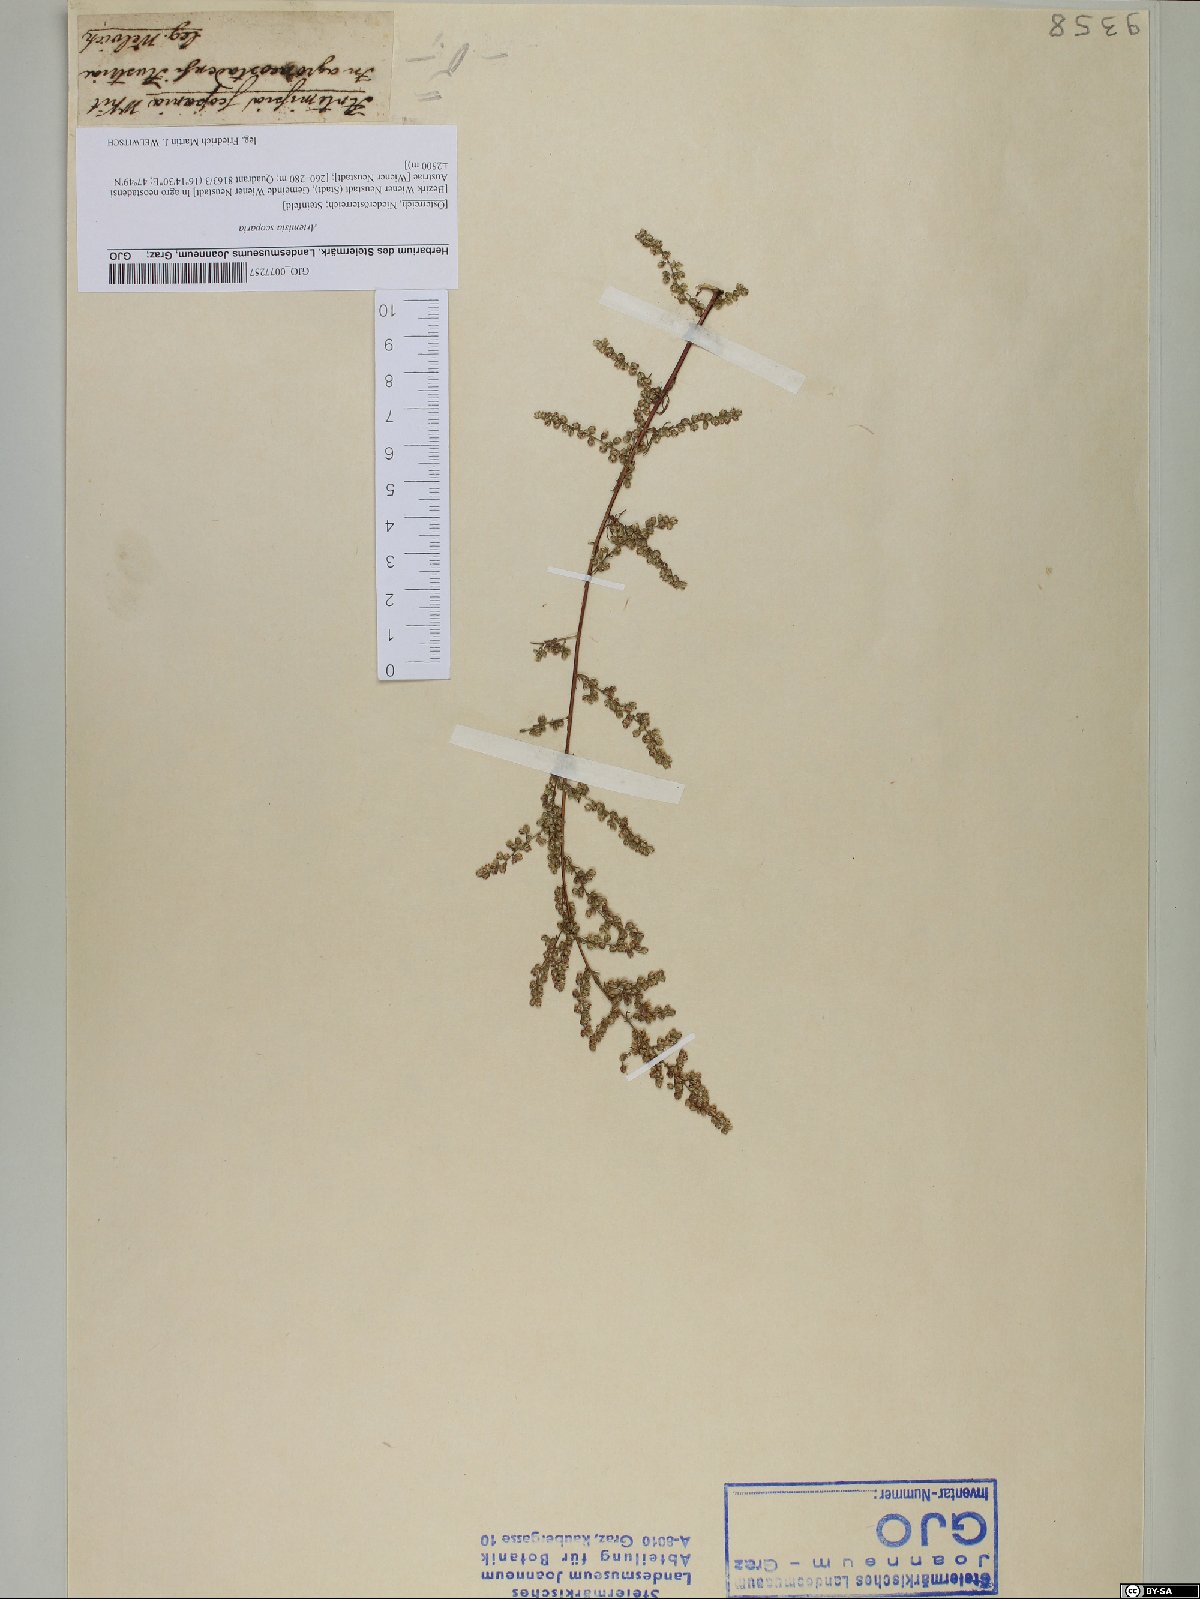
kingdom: Plantae
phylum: Tracheophyta
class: Magnoliopsida
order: Asterales
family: Asteraceae
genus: Artemisia
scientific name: Artemisia scoparia
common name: Redstem wormwood
